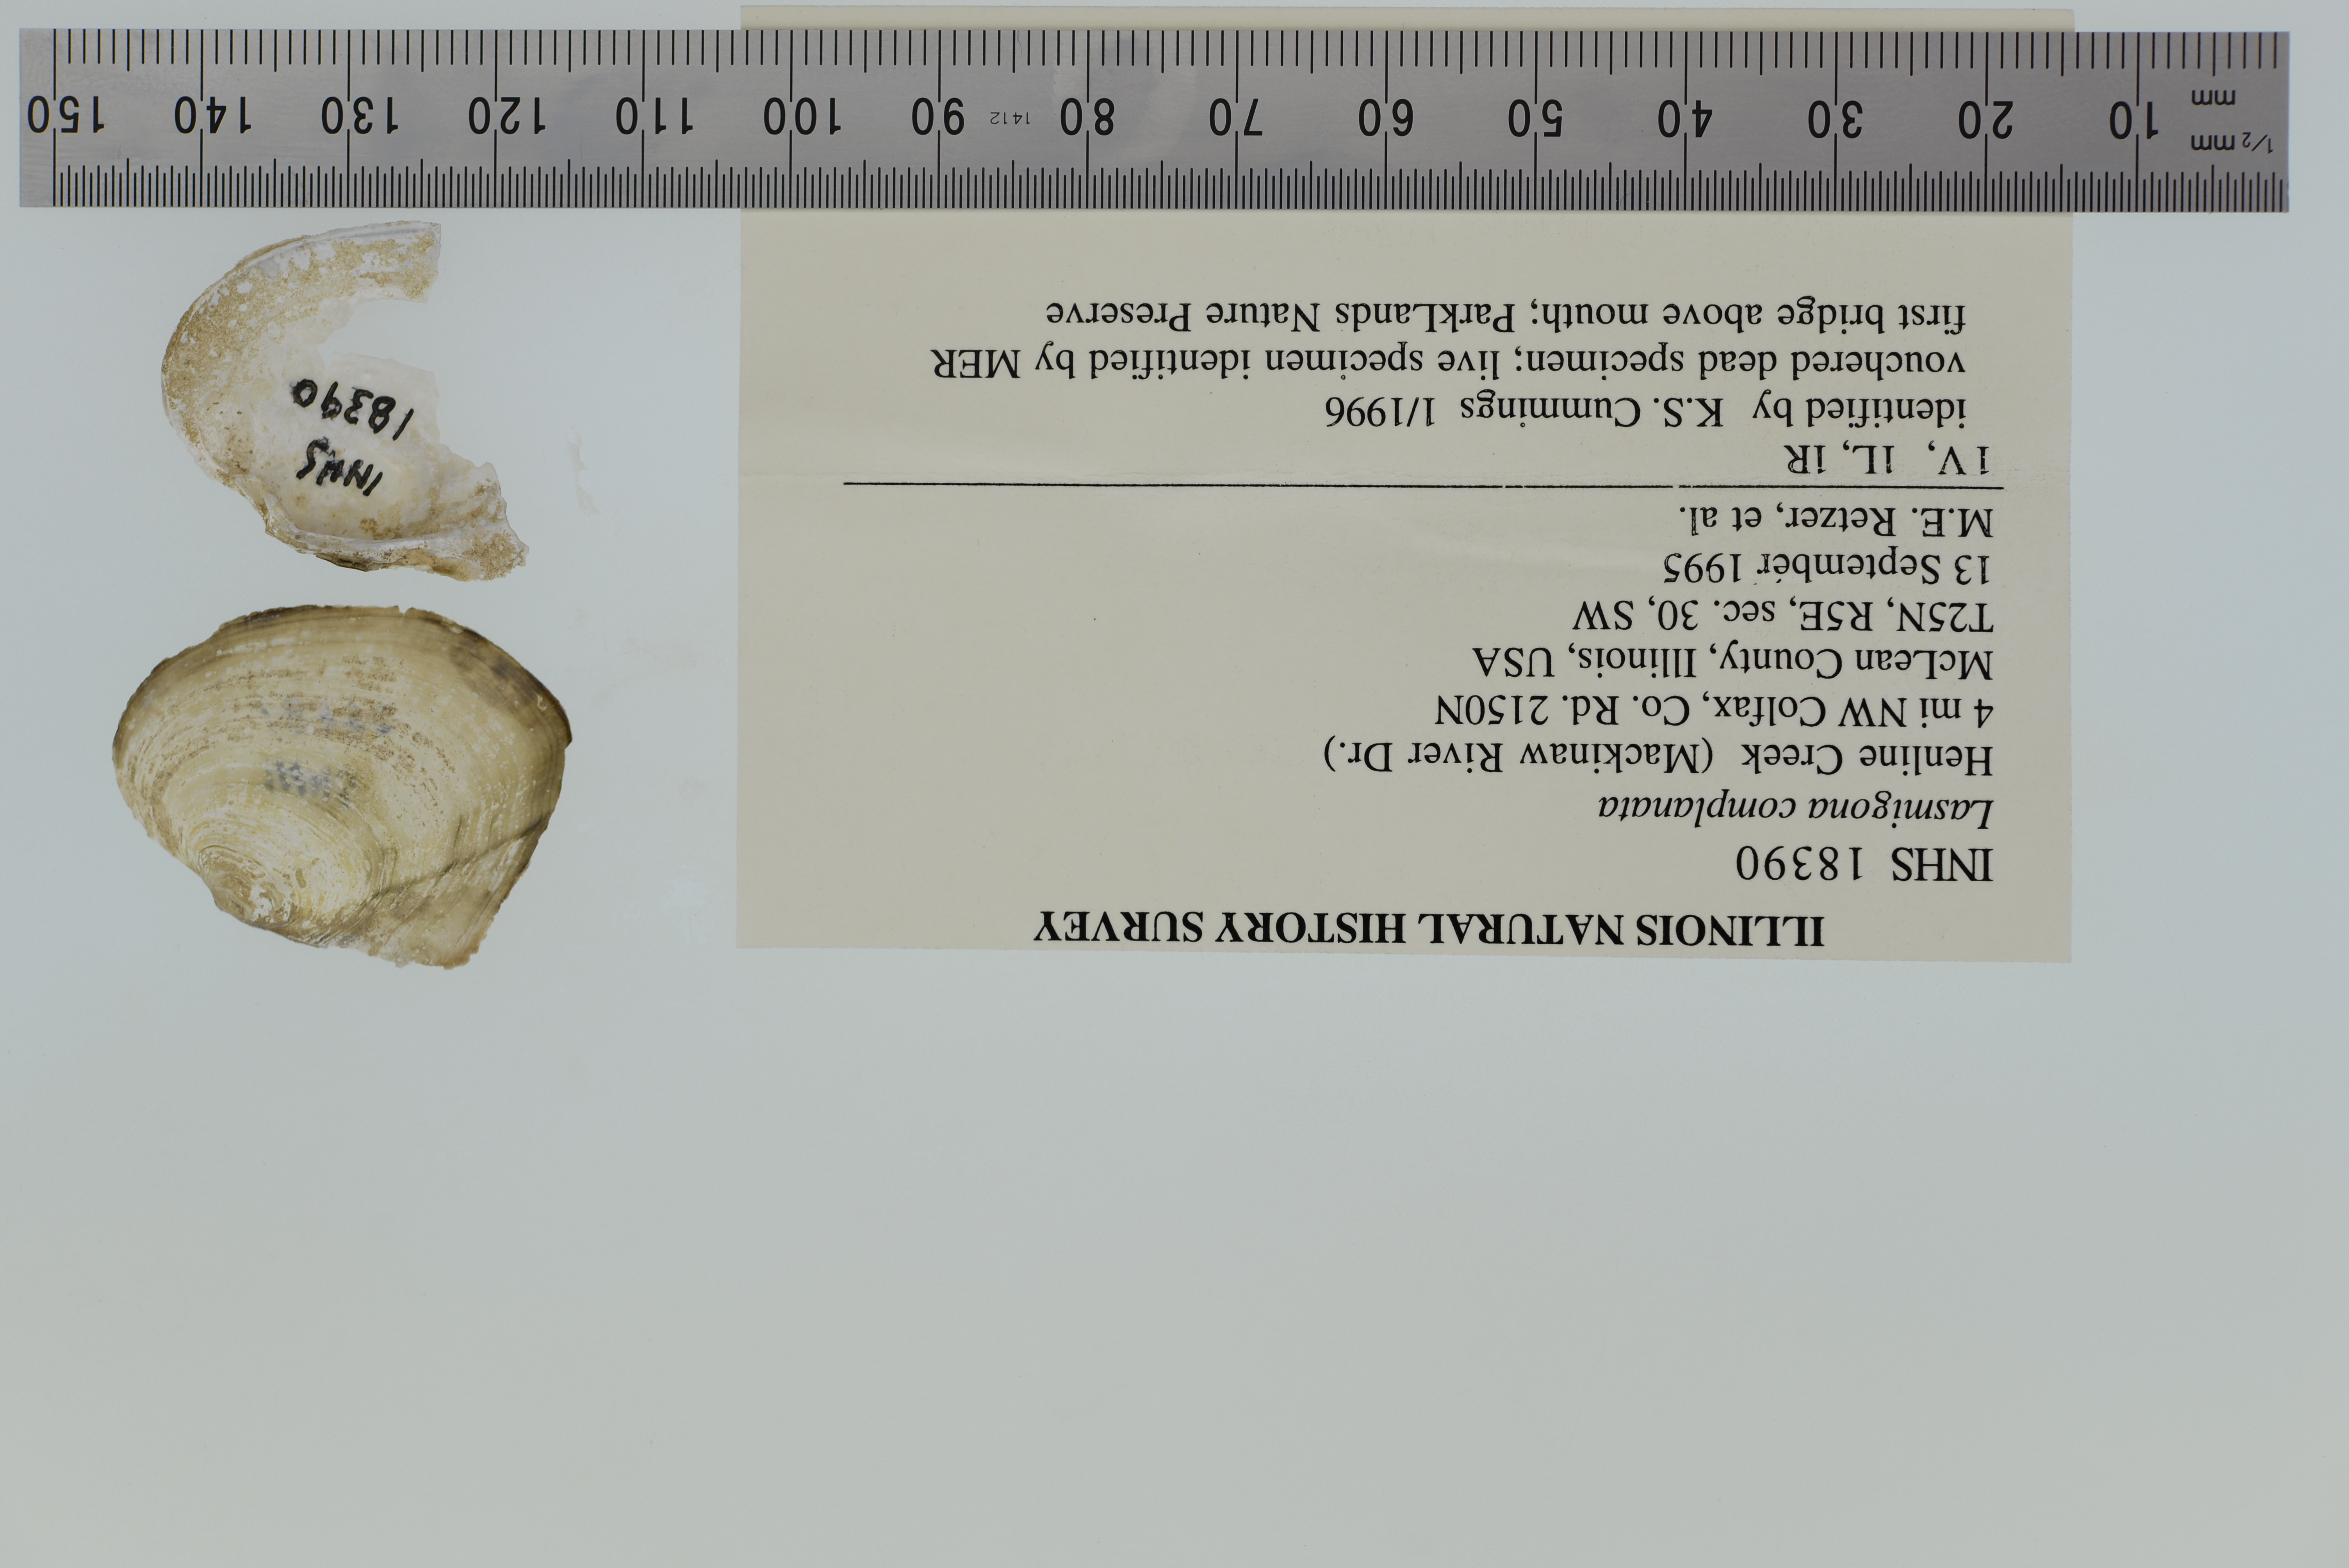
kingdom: Animalia
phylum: Mollusca
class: Bivalvia
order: Unionida
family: Unionidae
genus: Lasmigona
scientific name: Lasmigona complanata
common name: White heelsplitter
